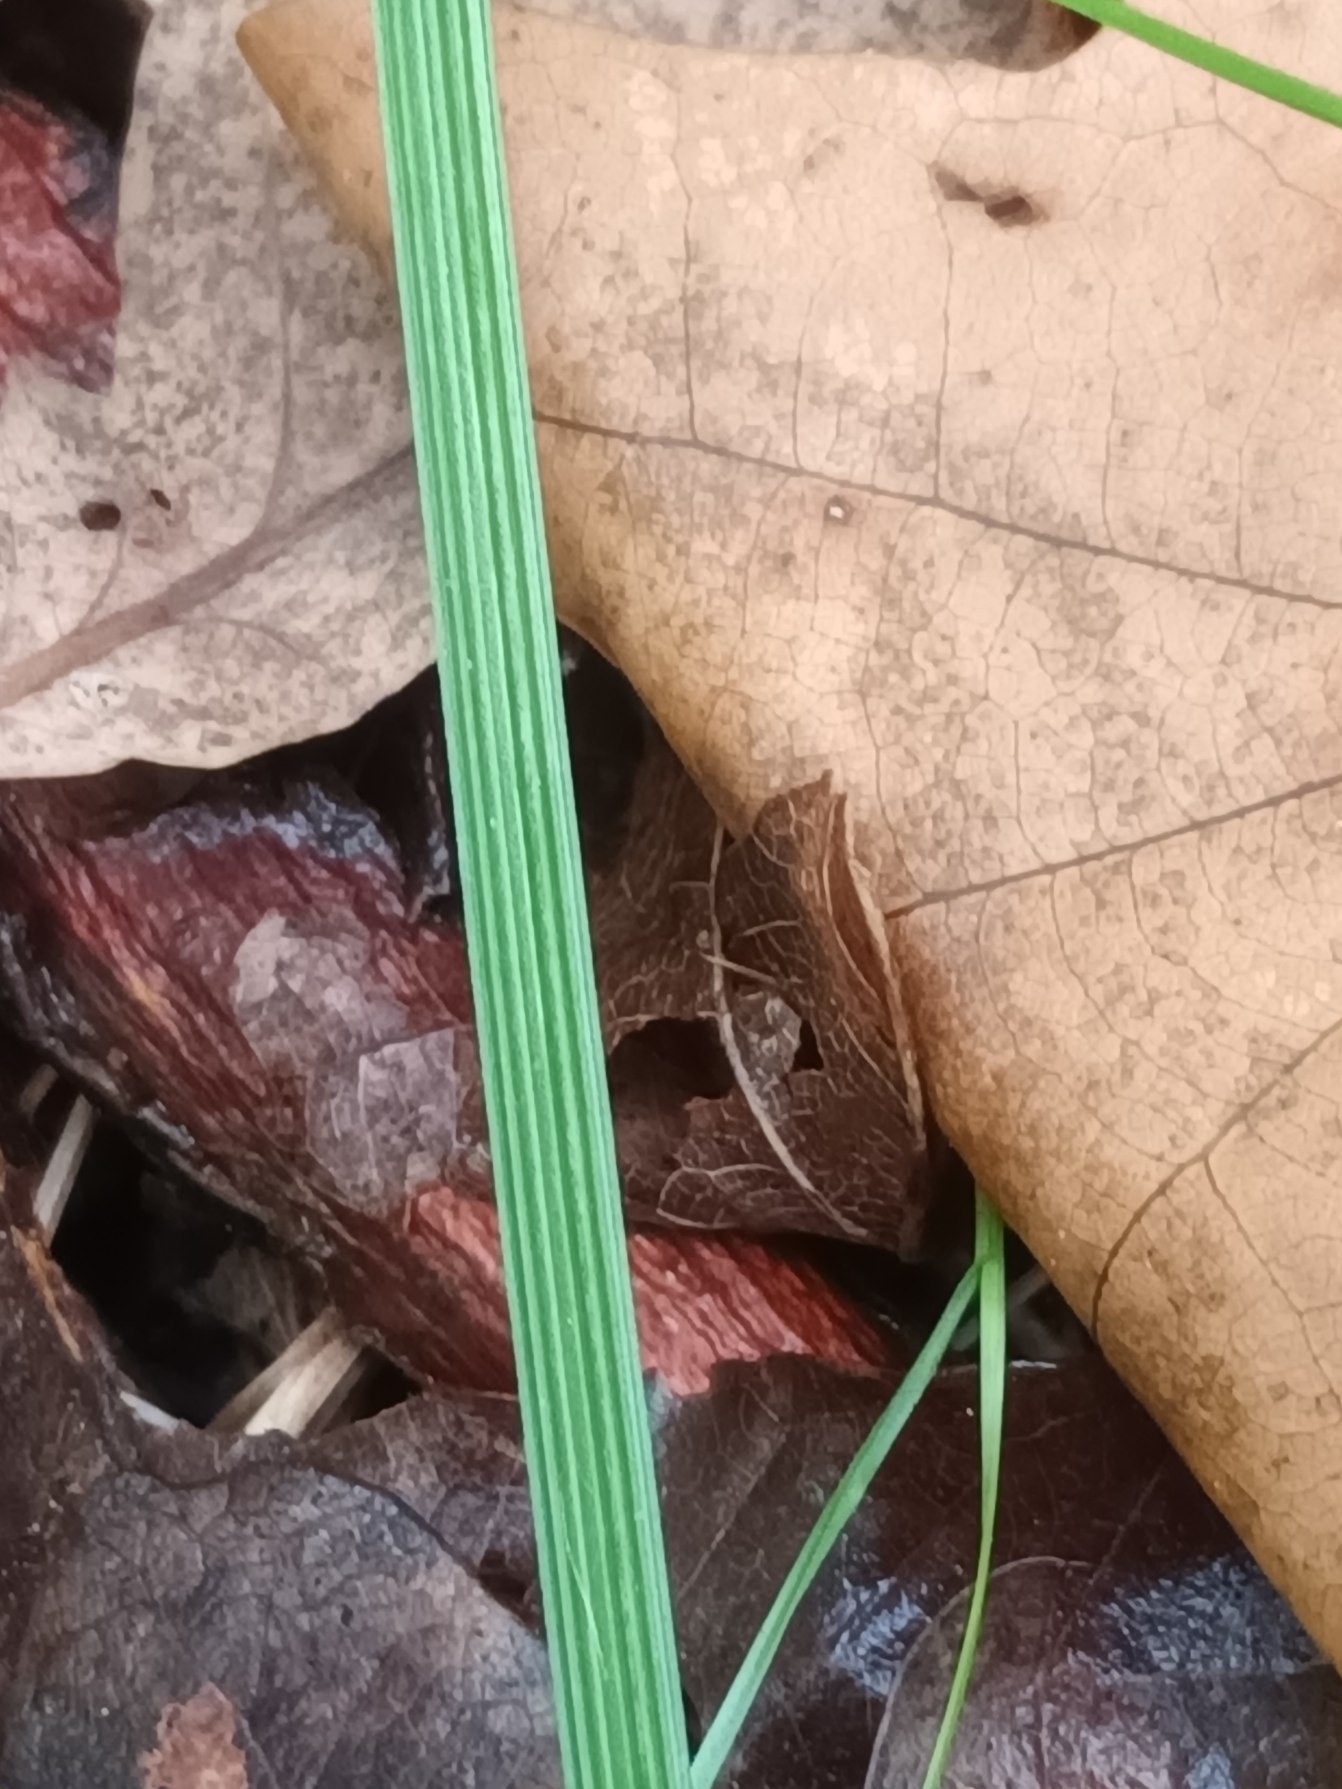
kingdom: Plantae
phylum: Tracheophyta
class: Liliopsida
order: Poales
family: Poaceae
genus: Deschampsia
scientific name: Deschampsia cespitosa
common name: Mose-bunke
